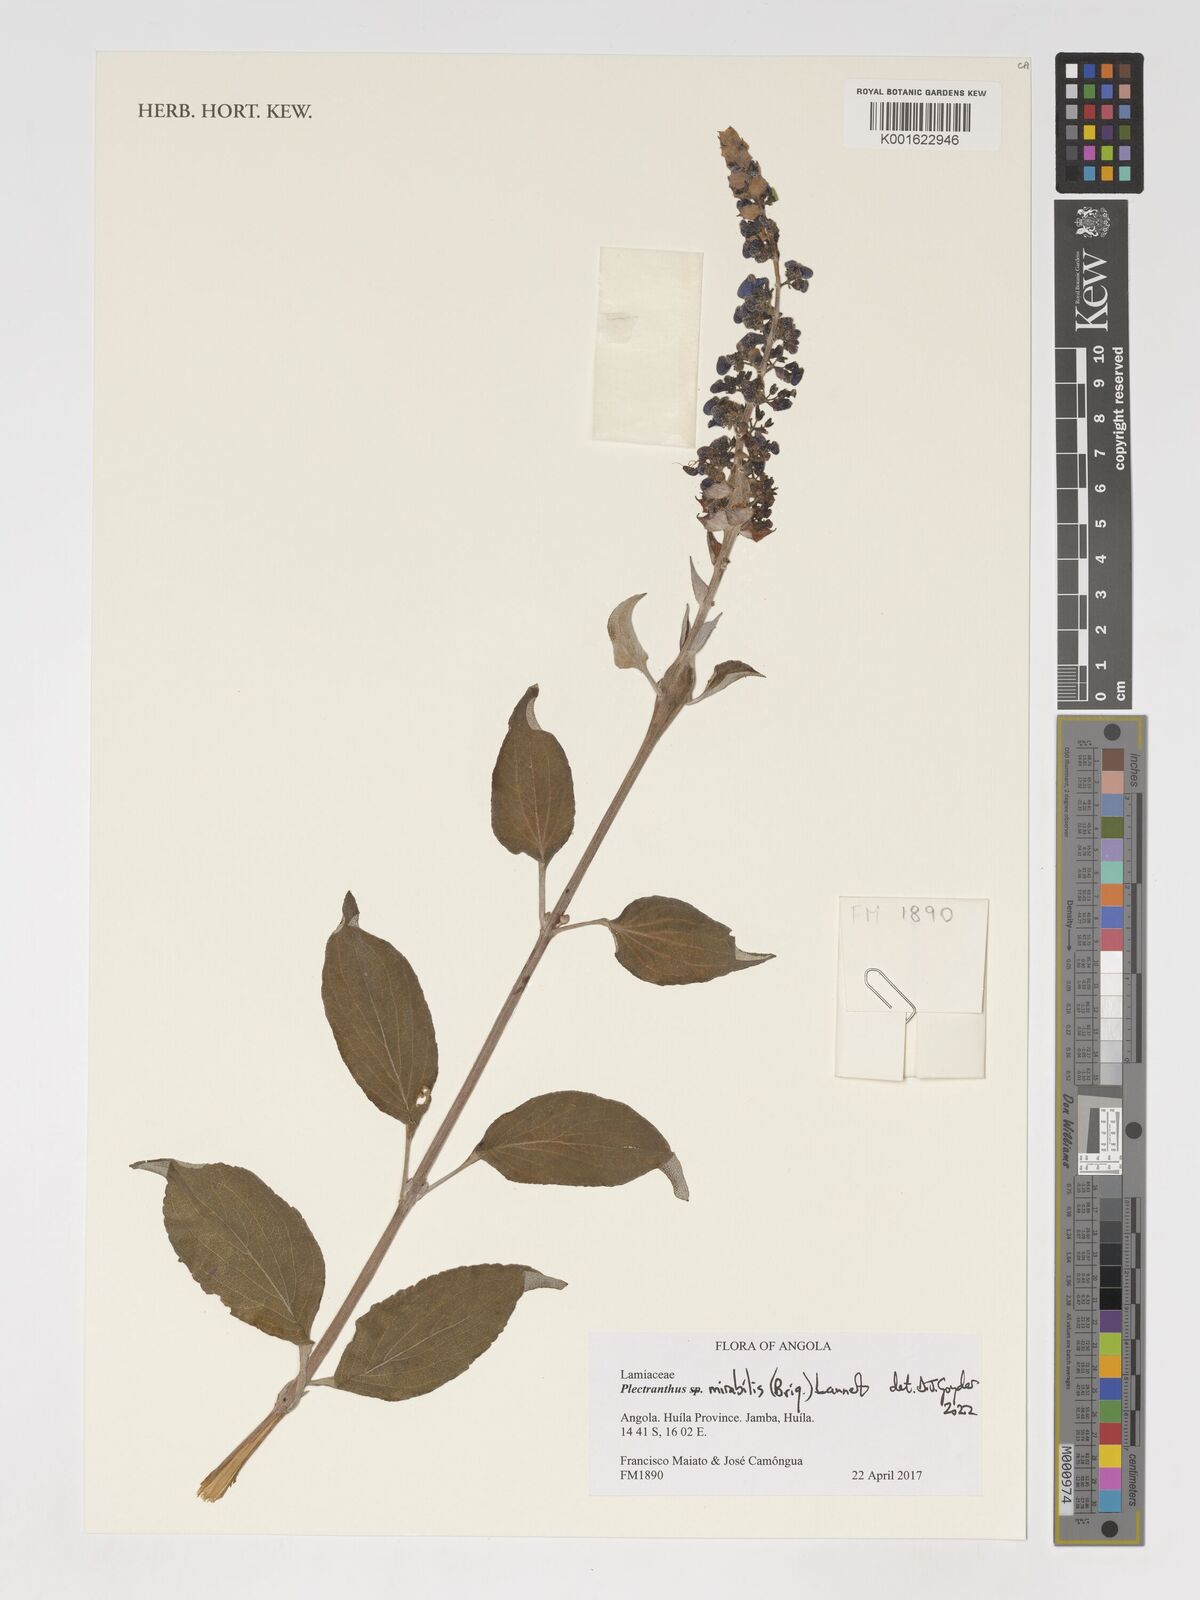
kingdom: Plantae
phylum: Tracheophyta
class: Magnoliopsida
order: Lamiales
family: Lamiaceae
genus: Coleus
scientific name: Coleus mirabilis
